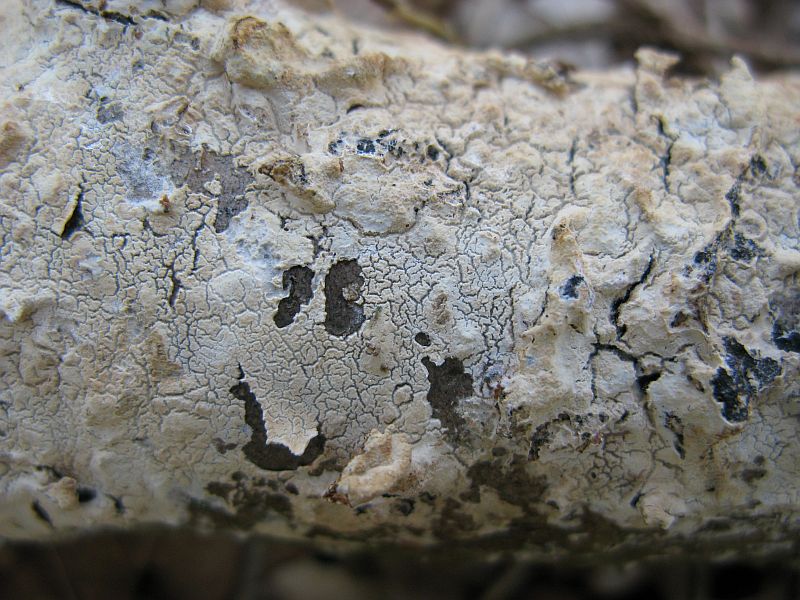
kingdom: Fungi
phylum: Basidiomycota
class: Agaricomycetes
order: Polyporales
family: Hyphodermataceae
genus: Hyphoderma
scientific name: Hyphoderma setigerum
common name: håret kalkskind
